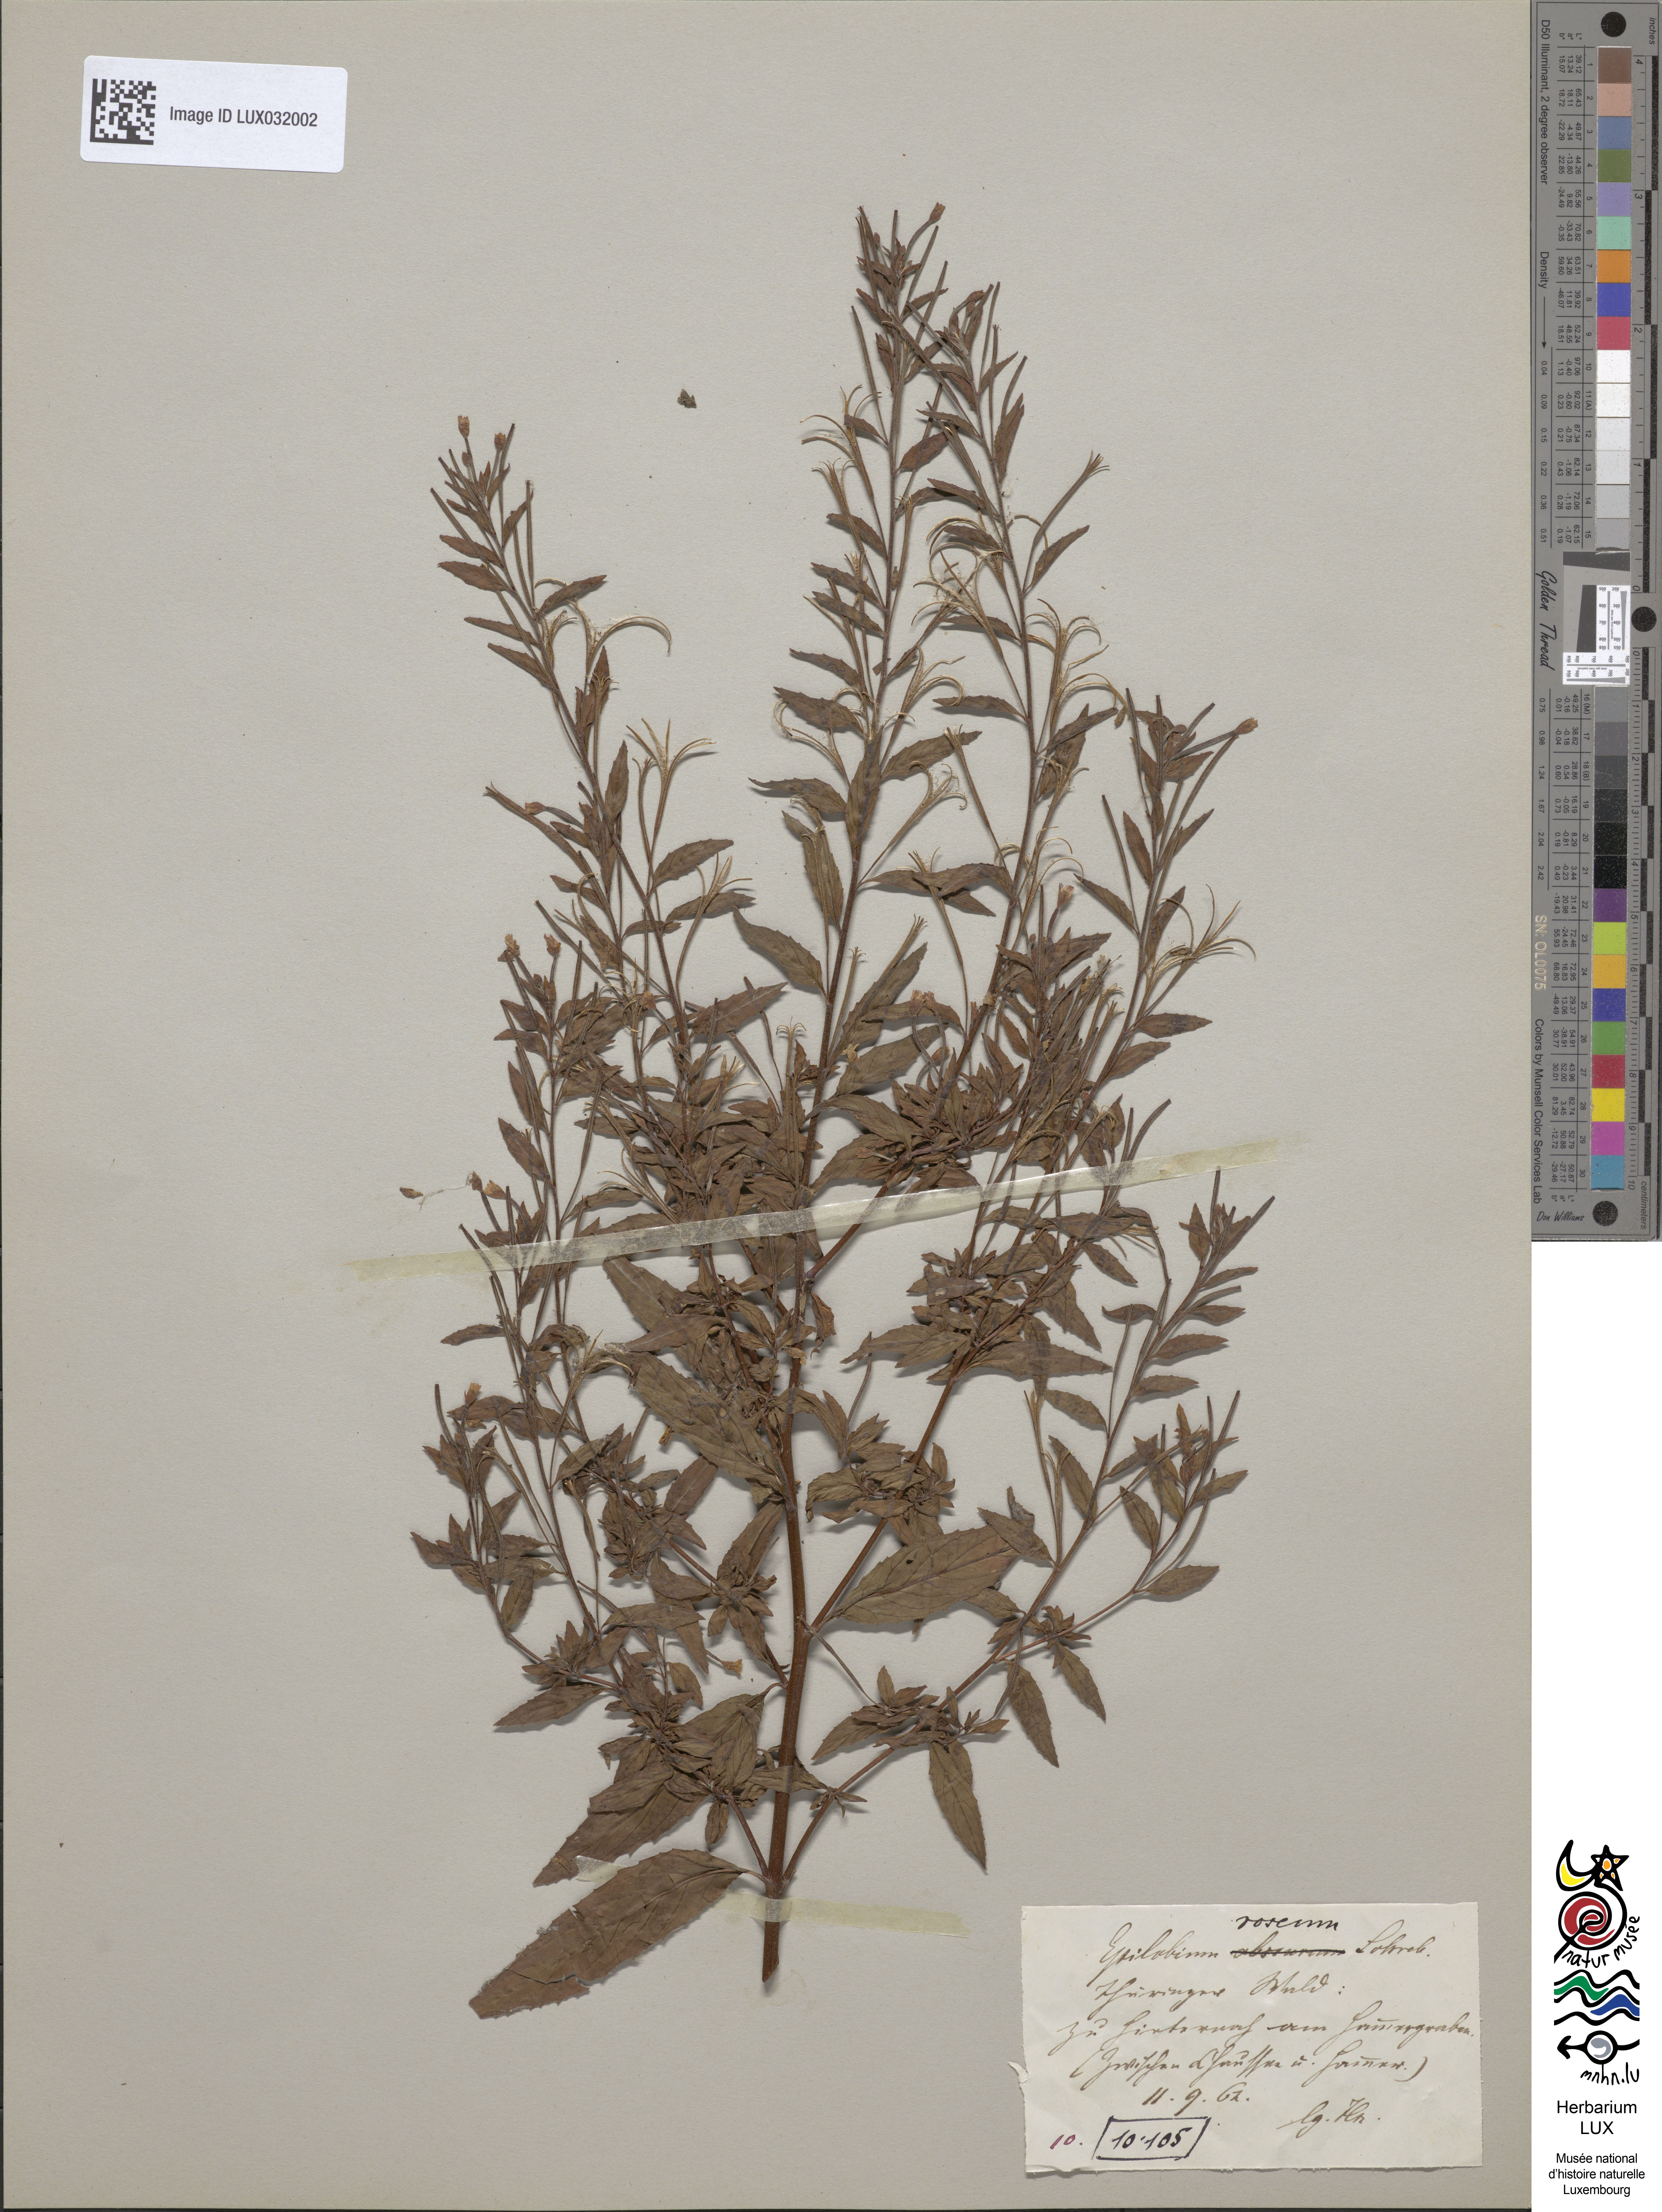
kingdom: Plantae
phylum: Tracheophyta
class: Magnoliopsida
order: Myrtales
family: Onagraceae
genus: Epilobium
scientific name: Epilobium roseum
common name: Pale willowherb
